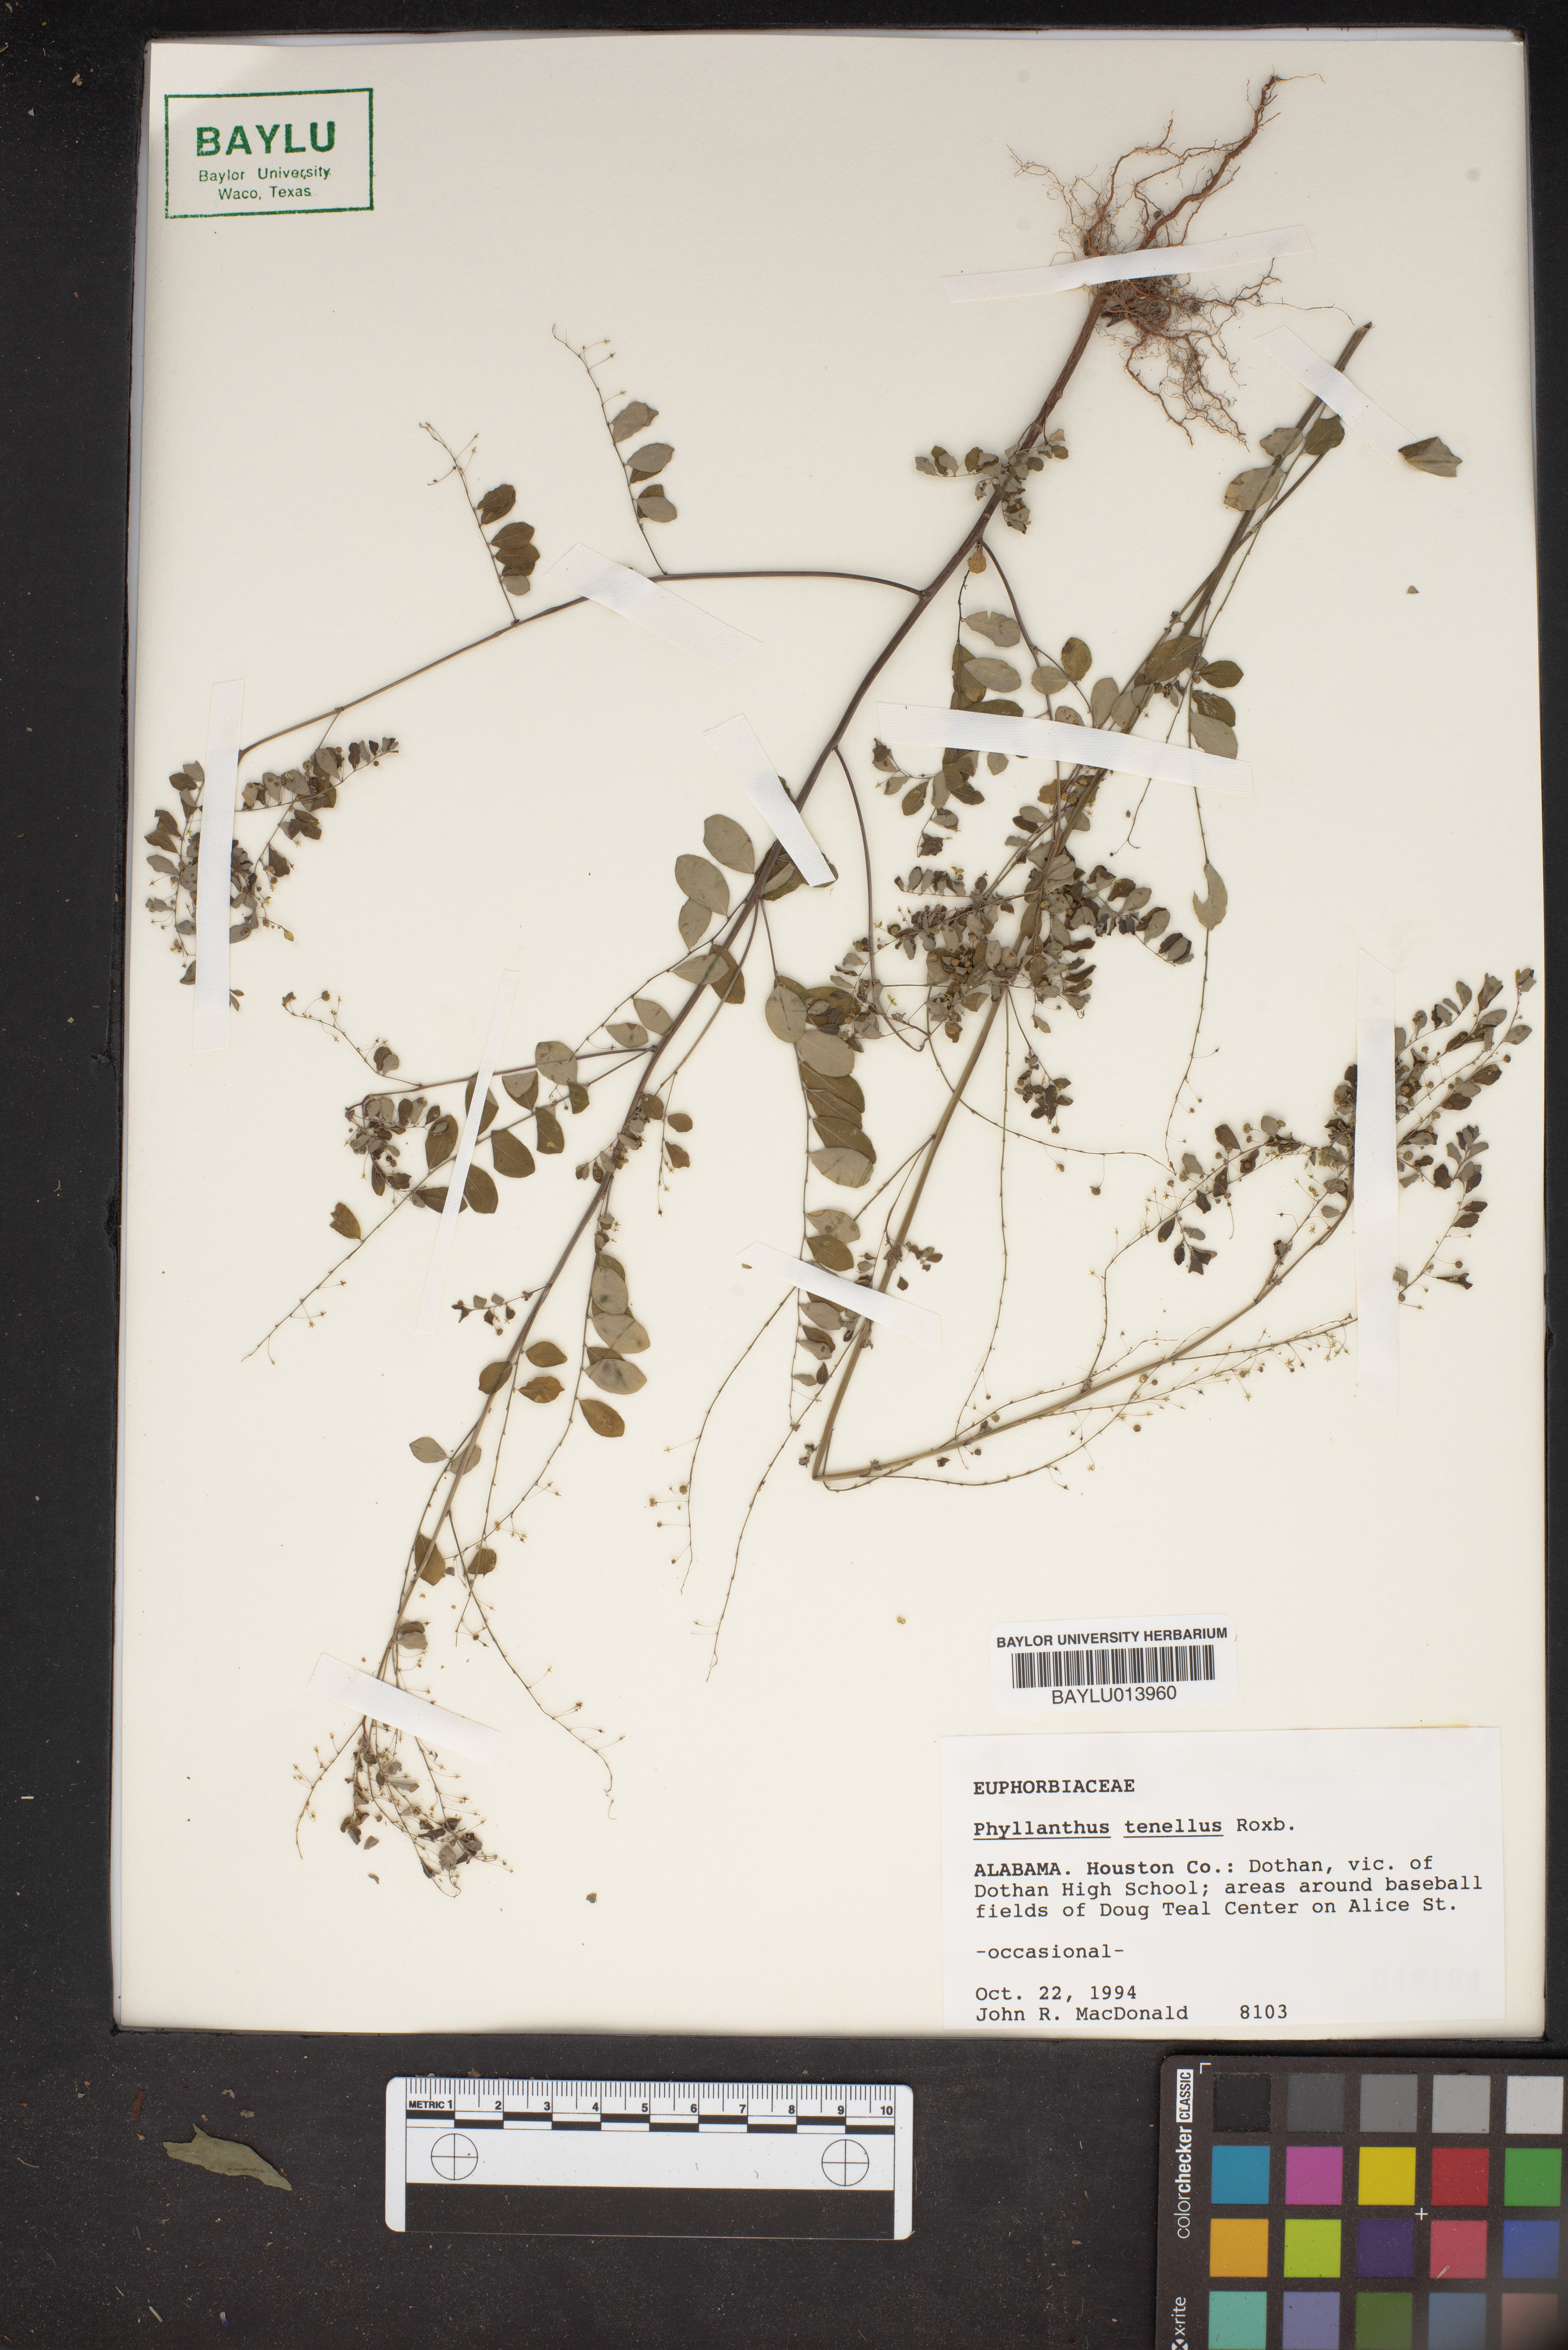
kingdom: Plantae
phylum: Tracheophyta
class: Magnoliopsida
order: Malpighiales
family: Phyllanthaceae
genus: Phyllanthus
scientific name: Phyllanthus tenellus
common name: Mascarene island leaf-flower
